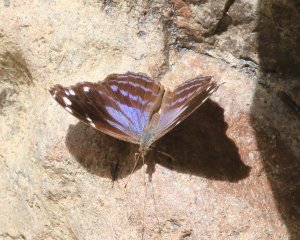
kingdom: Animalia
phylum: Arthropoda
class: Insecta
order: Lepidoptera
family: Nymphalidae
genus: Myscelia
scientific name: Myscelia cyananthe
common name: Blackened Bluewing
